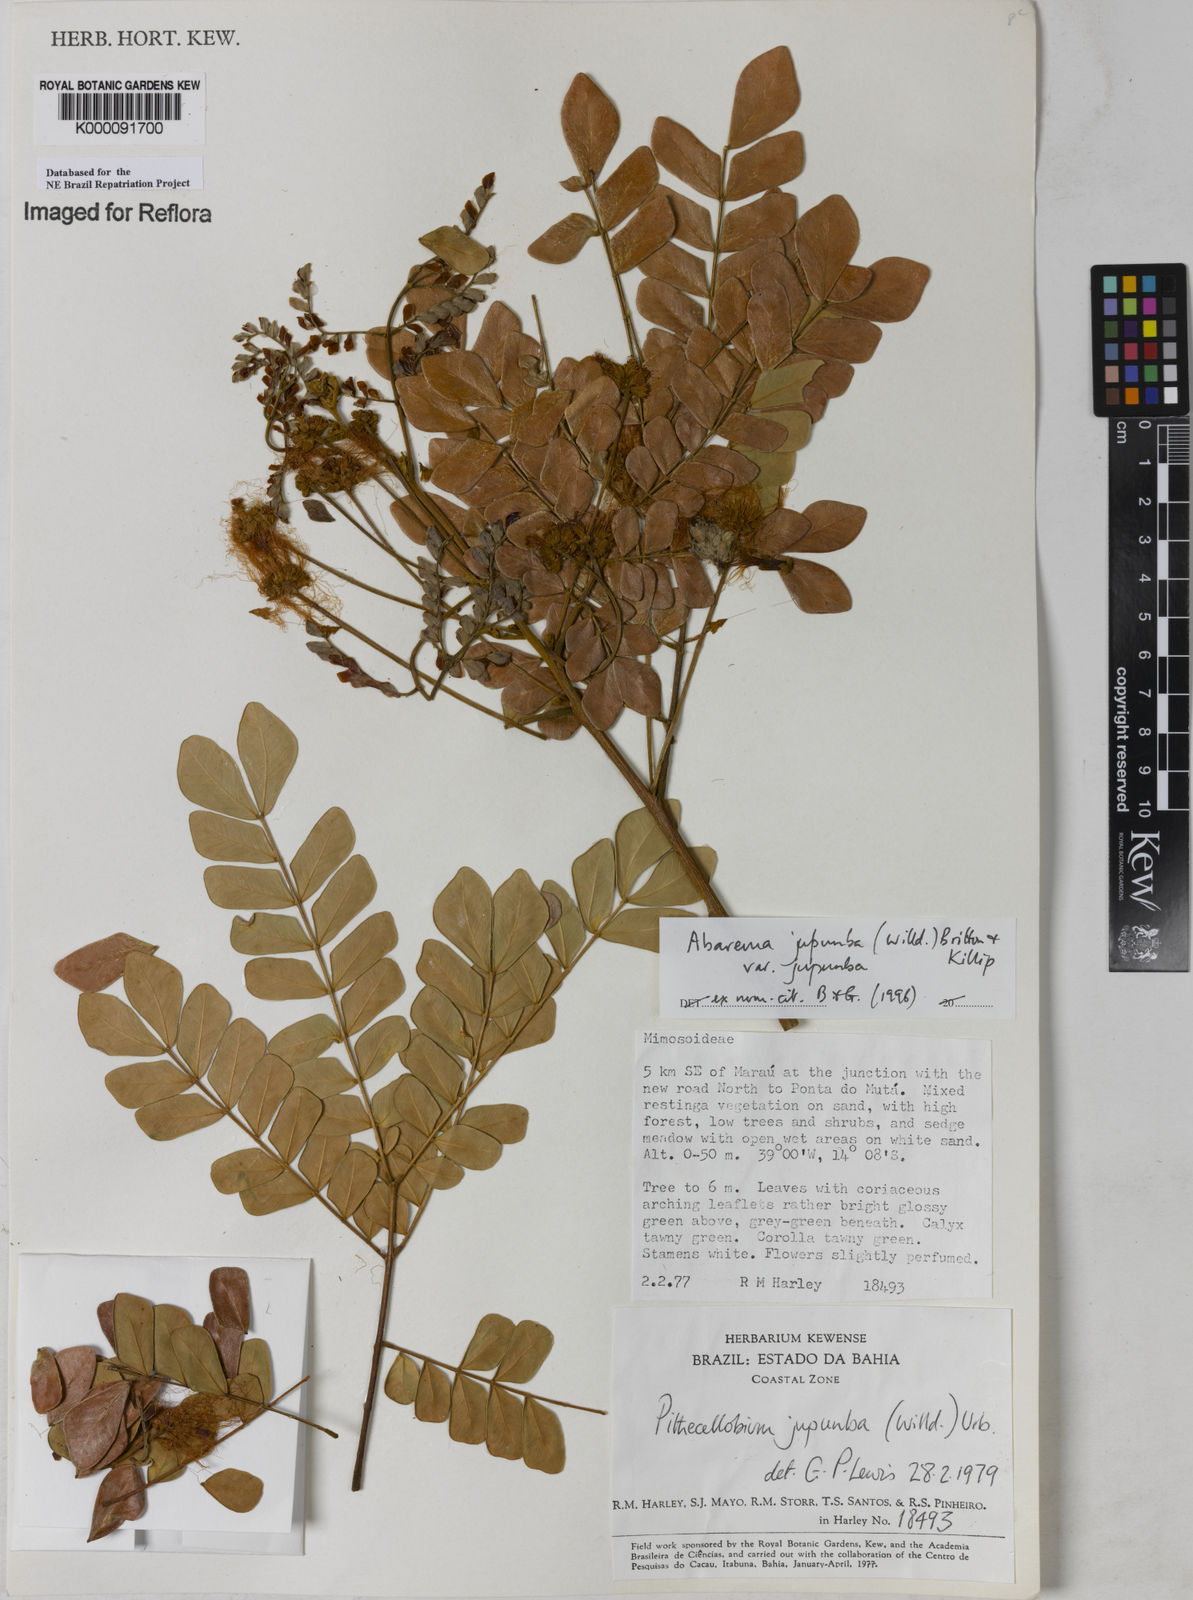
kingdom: Plantae
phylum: Tracheophyta
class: Magnoliopsida
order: Fabales
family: Fabaceae
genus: Jupunba
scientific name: Jupunba trapezifolia
